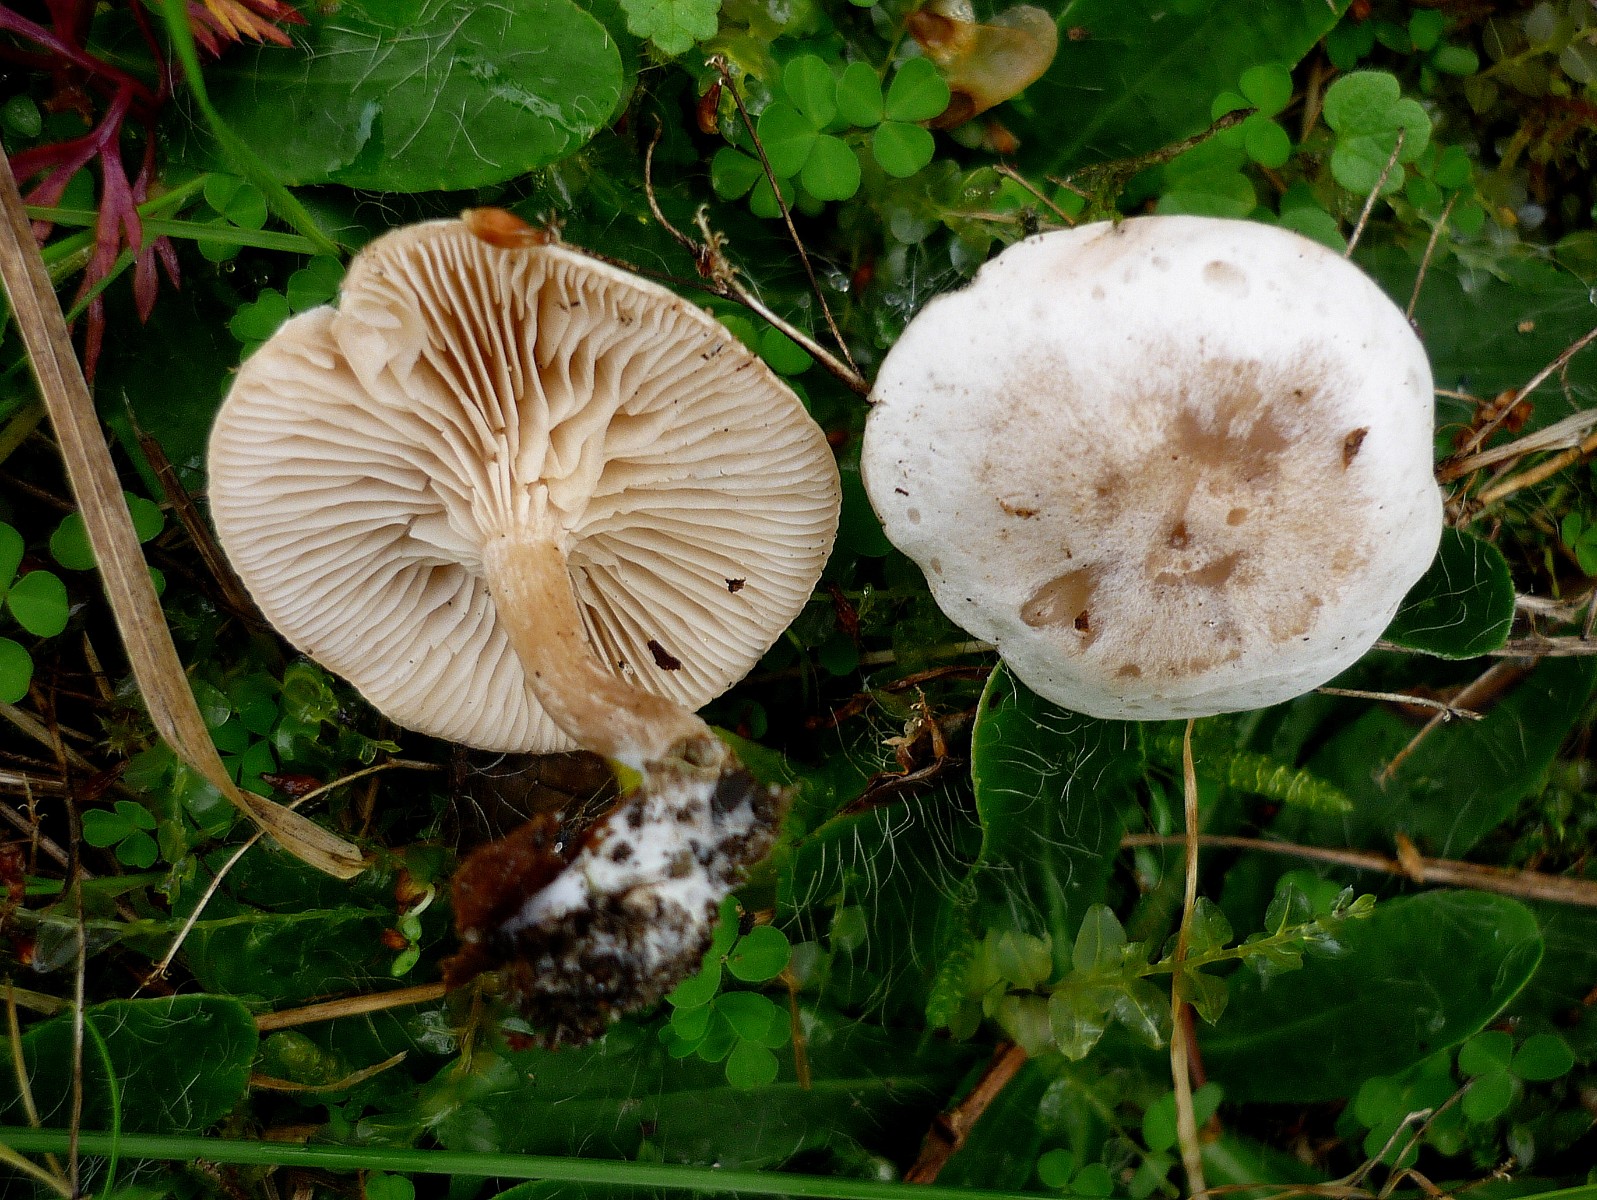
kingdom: Fungi
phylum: Basidiomycota
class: Agaricomycetes
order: Agaricales
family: Tricholomataceae
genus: Clitocybe
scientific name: Clitocybe rivulosa
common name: eng-tragthat
